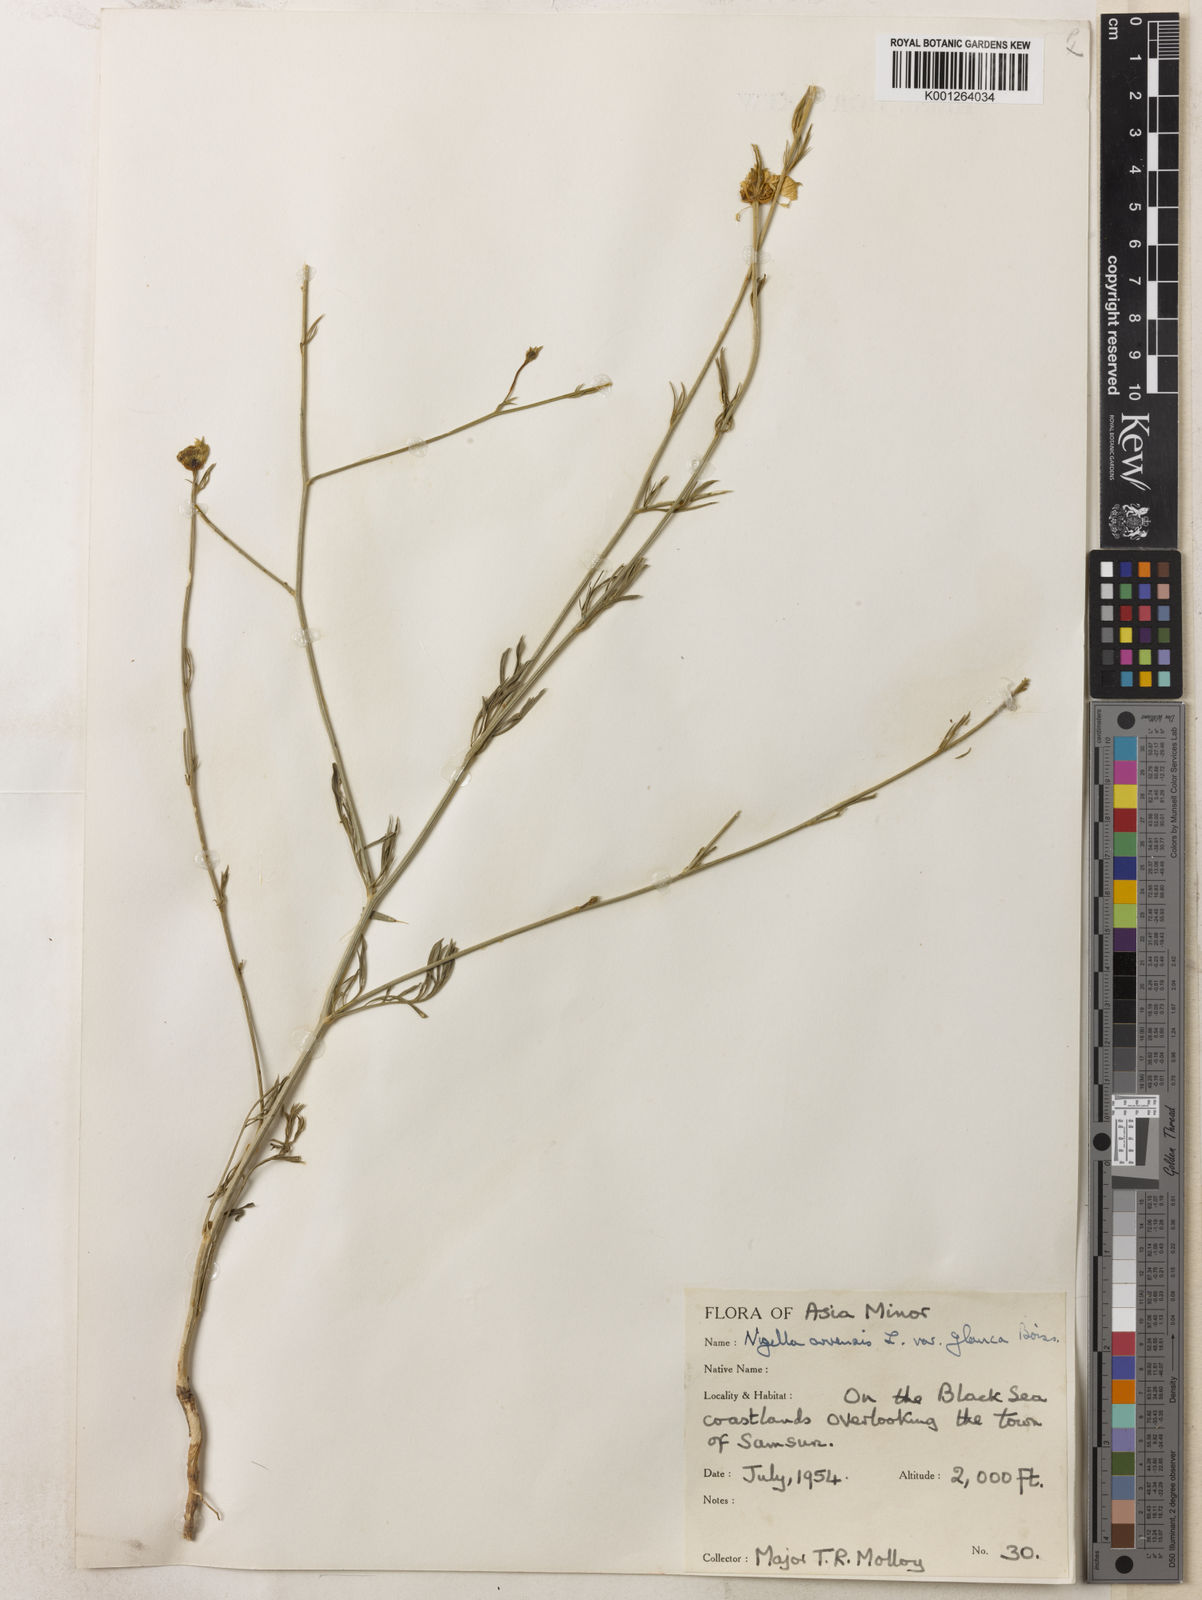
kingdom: Plantae
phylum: Tracheophyta
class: Magnoliopsida
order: Ranunculales
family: Ranunculaceae
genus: Nigella
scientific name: Nigella arvensis
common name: Wild fennel-flower
